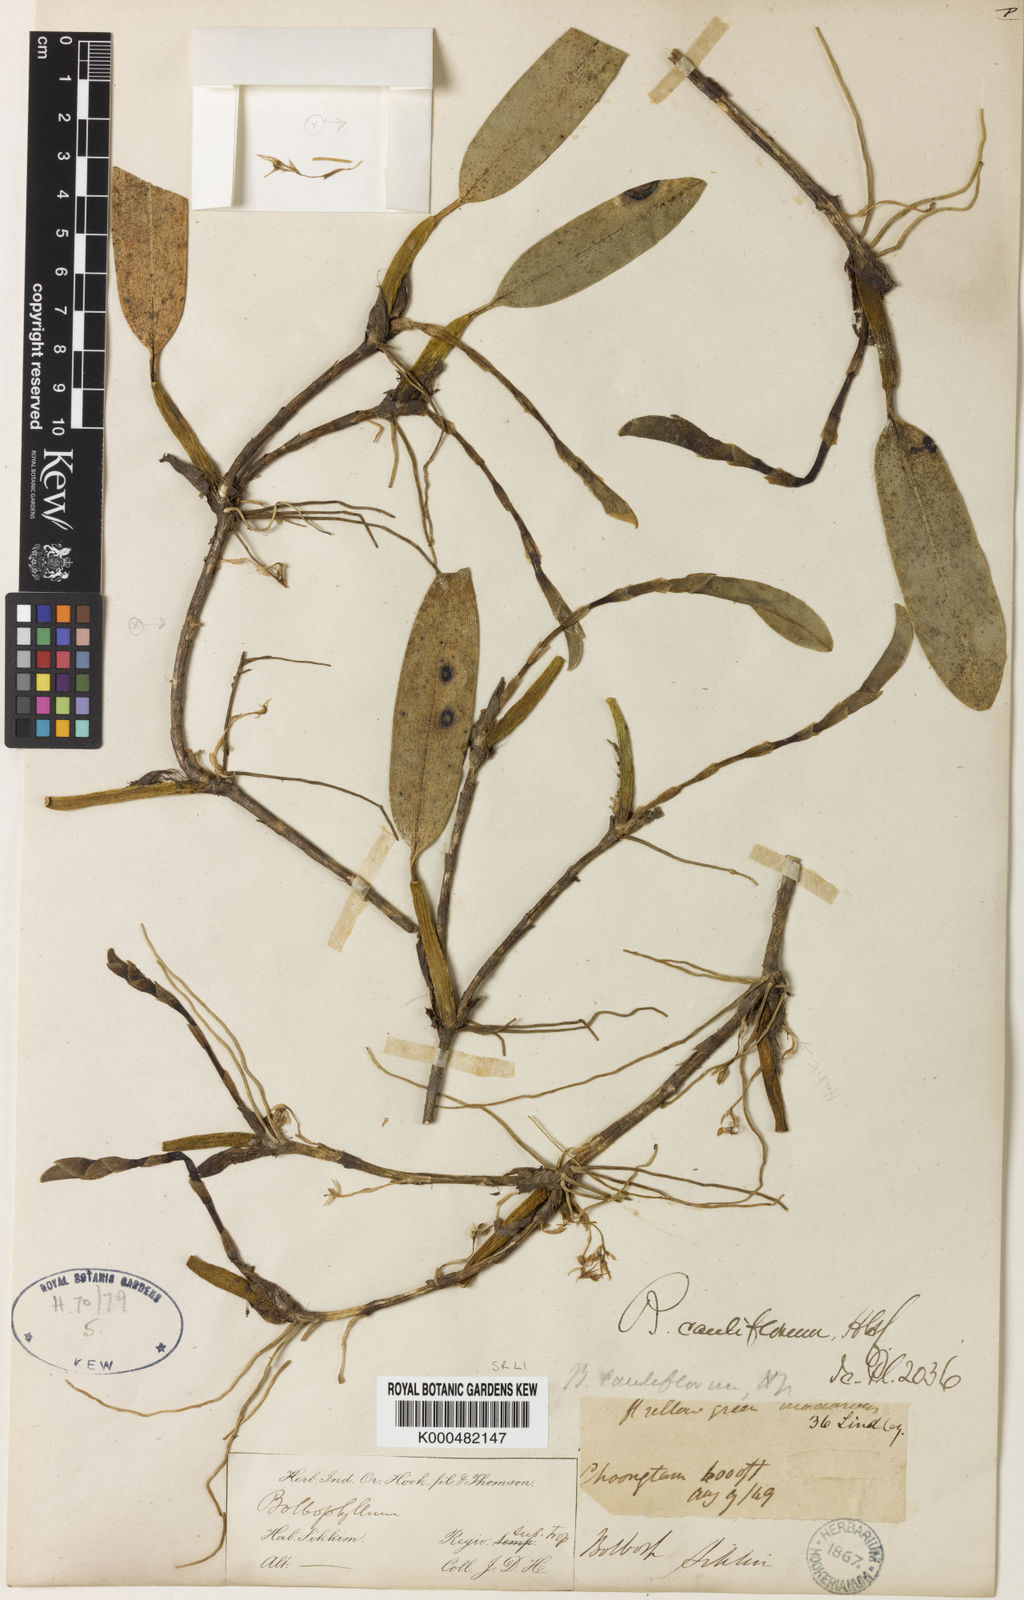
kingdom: Plantae
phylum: Tracheophyta
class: Liliopsida
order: Asparagales
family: Orchidaceae
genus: Bulbophyllum
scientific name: Bulbophyllum cauliflorum
